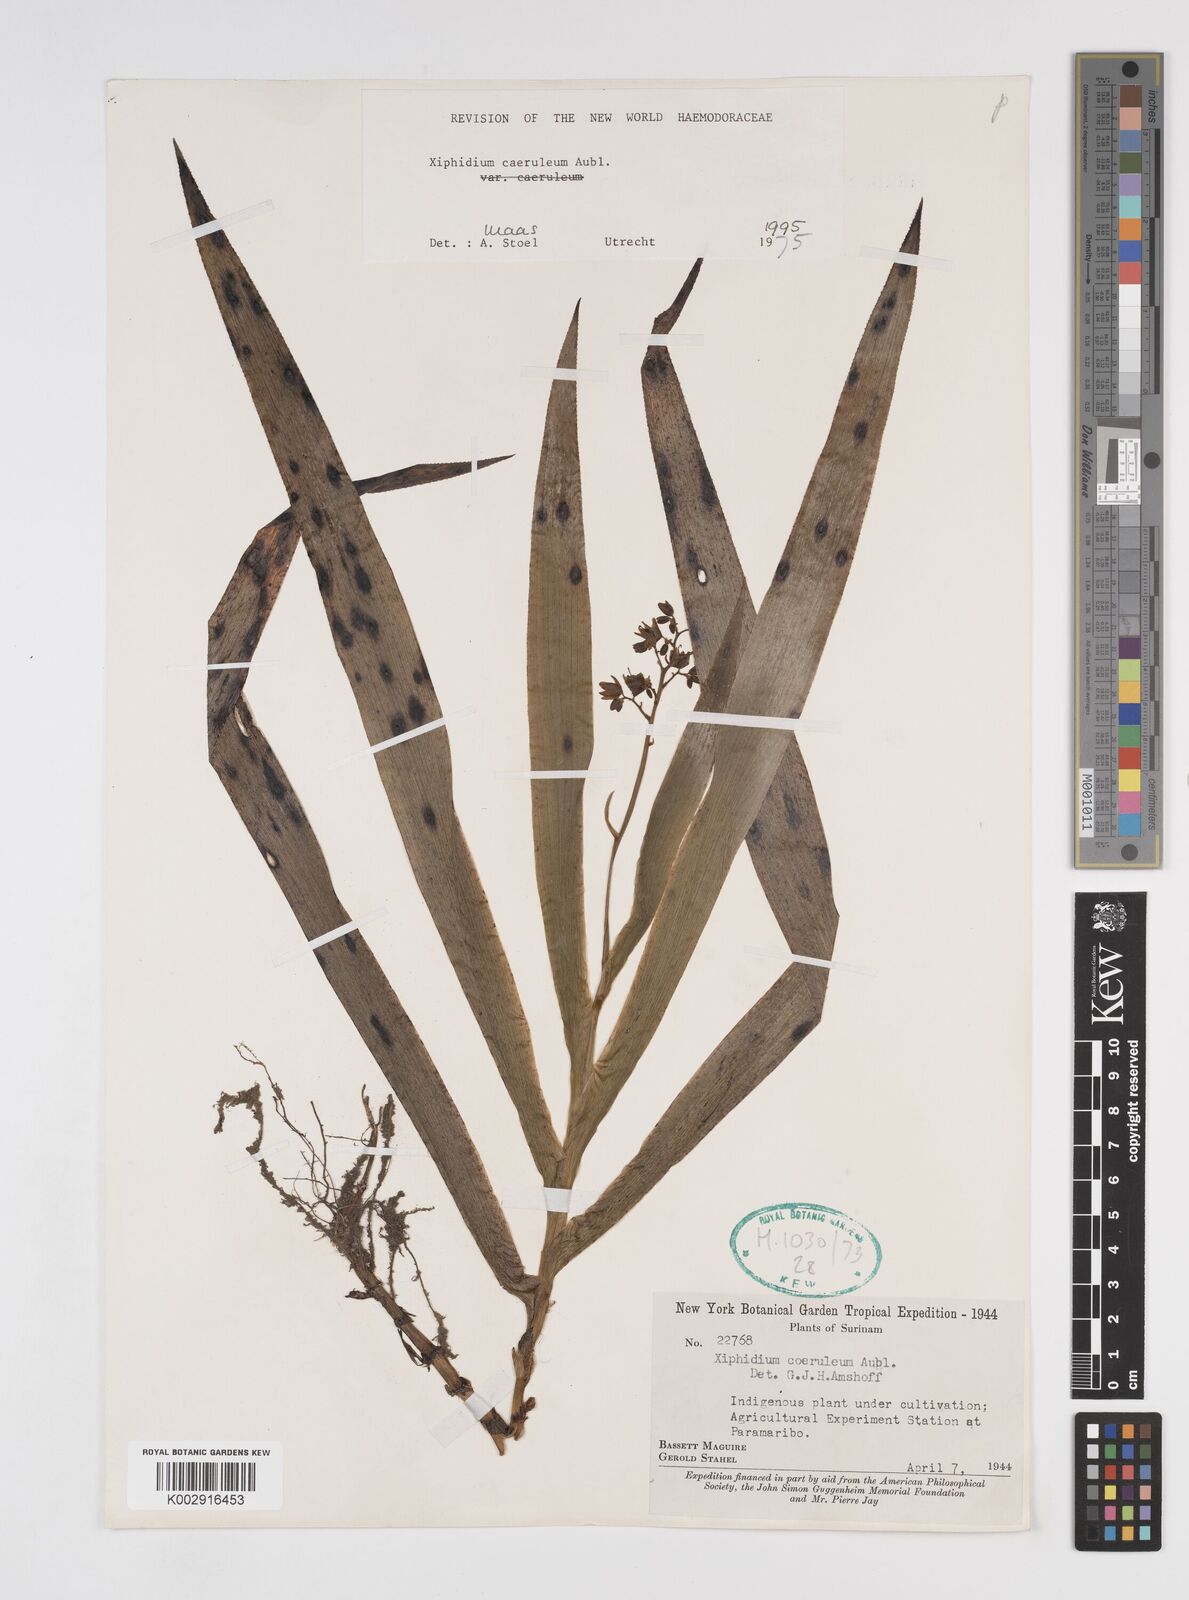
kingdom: Plantae
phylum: Tracheophyta
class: Liliopsida
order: Commelinales
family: Haemodoraceae
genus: Xiphidium
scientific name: Xiphidium caeruleum
